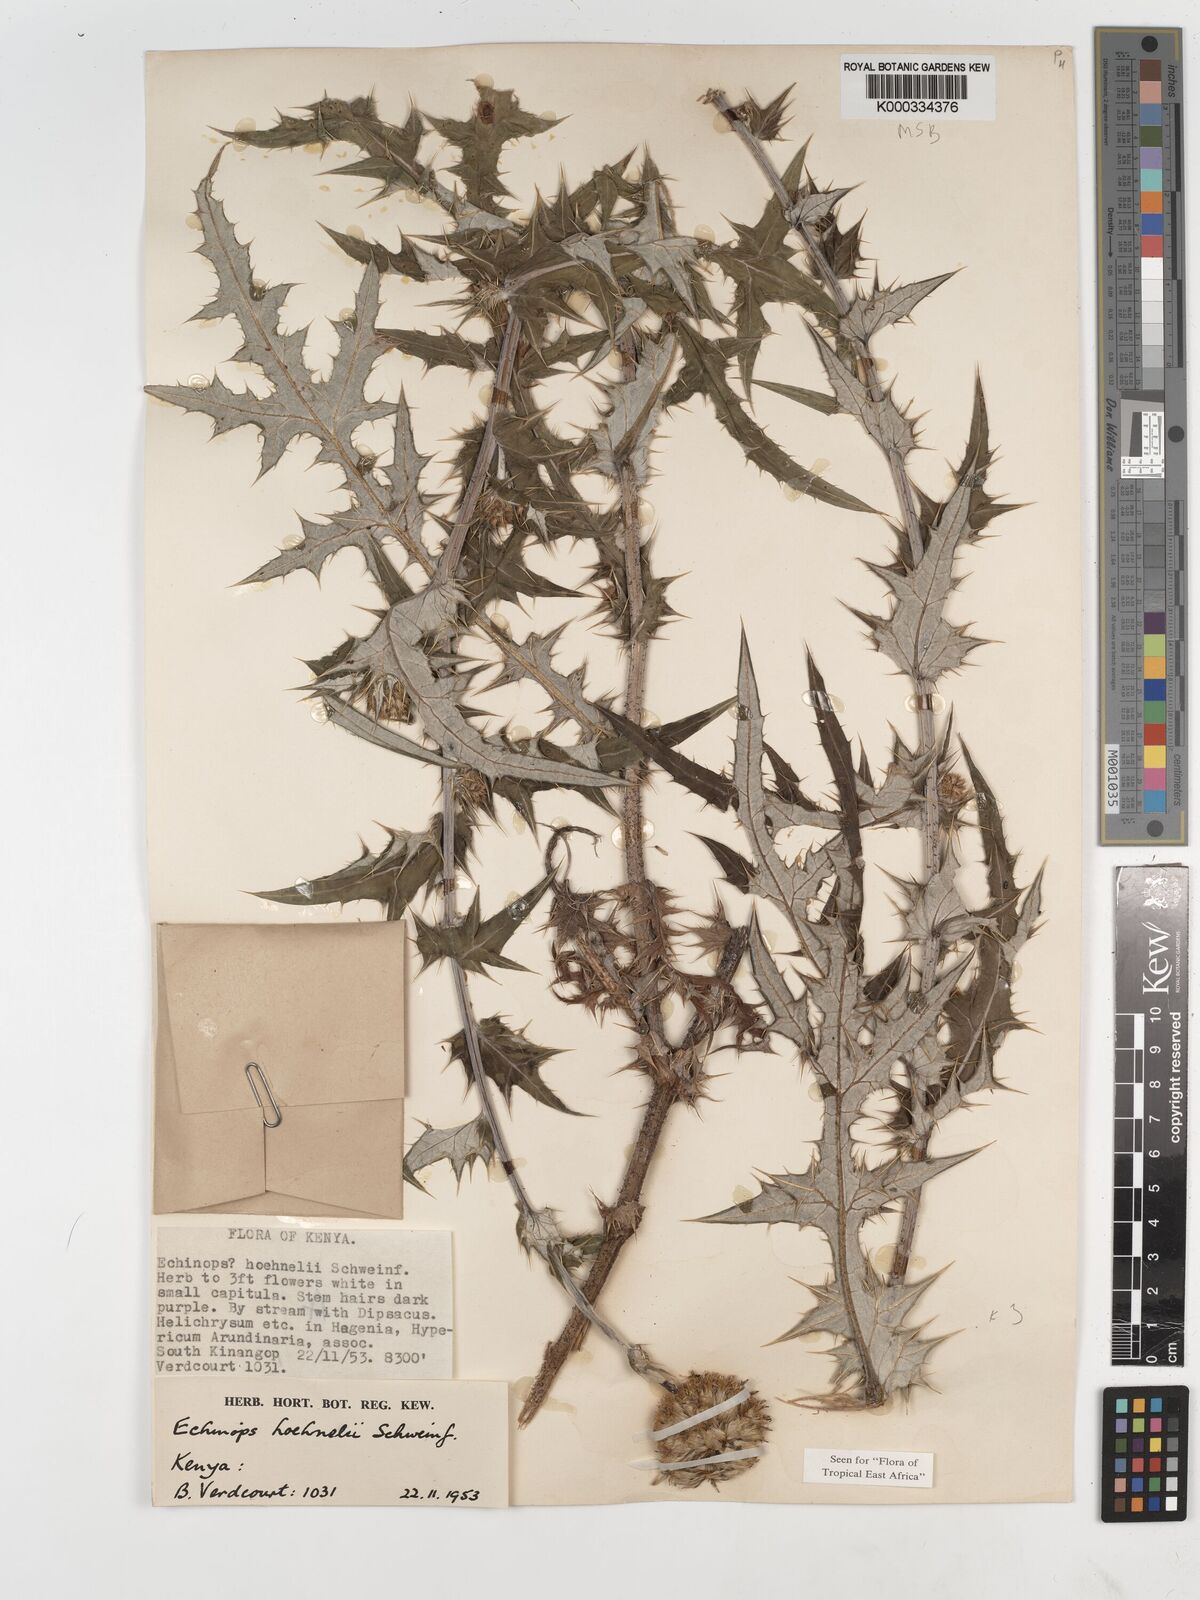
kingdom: Plantae
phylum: Tracheophyta
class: Magnoliopsida
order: Asterales
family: Asteraceae
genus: Echinops
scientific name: Echinops hoehnelii
